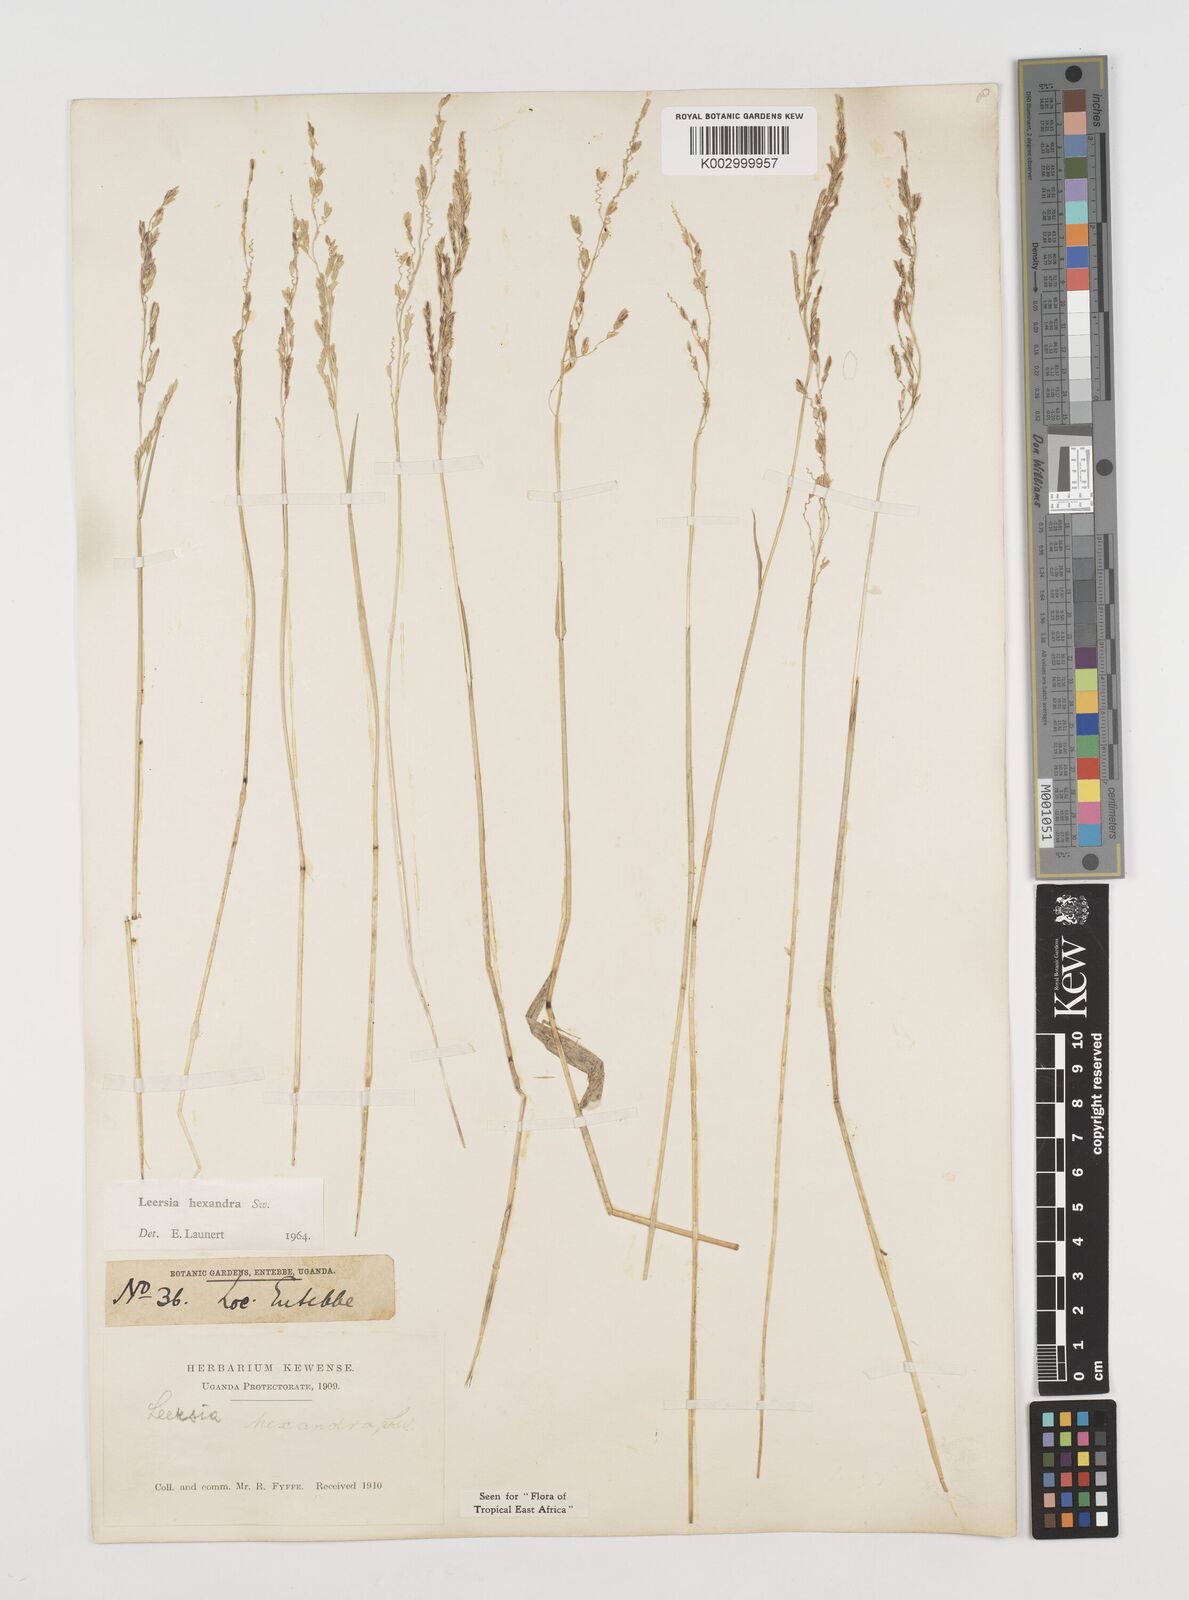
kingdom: Plantae
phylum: Tracheophyta
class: Liliopsida
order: Poales
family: Poaceae
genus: Leersia
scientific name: Leersia hexandra
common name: Southern cut grass
